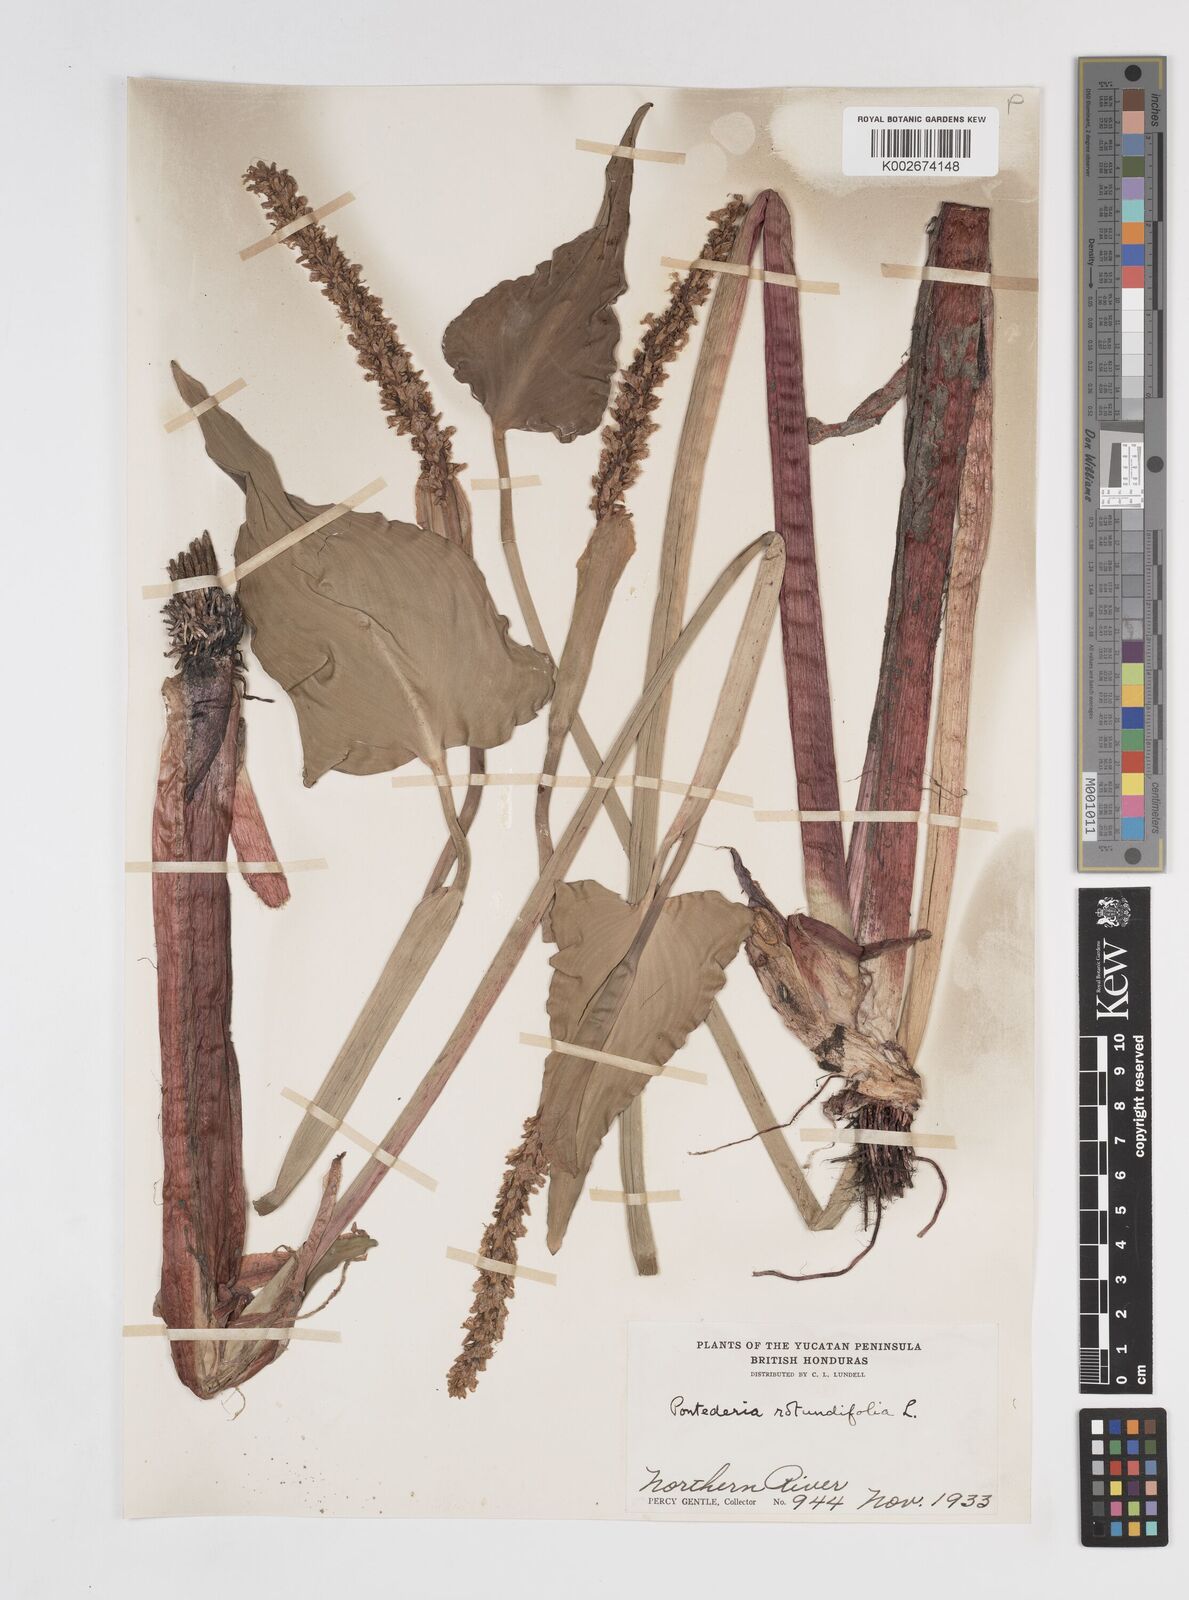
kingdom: Plantae
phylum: Tracheophyta
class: Liliopsida
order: Commelinales
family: Pontederiaceae
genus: Pontederia
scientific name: Pontederia rotundifolia
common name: Tropical pickerel-weed
